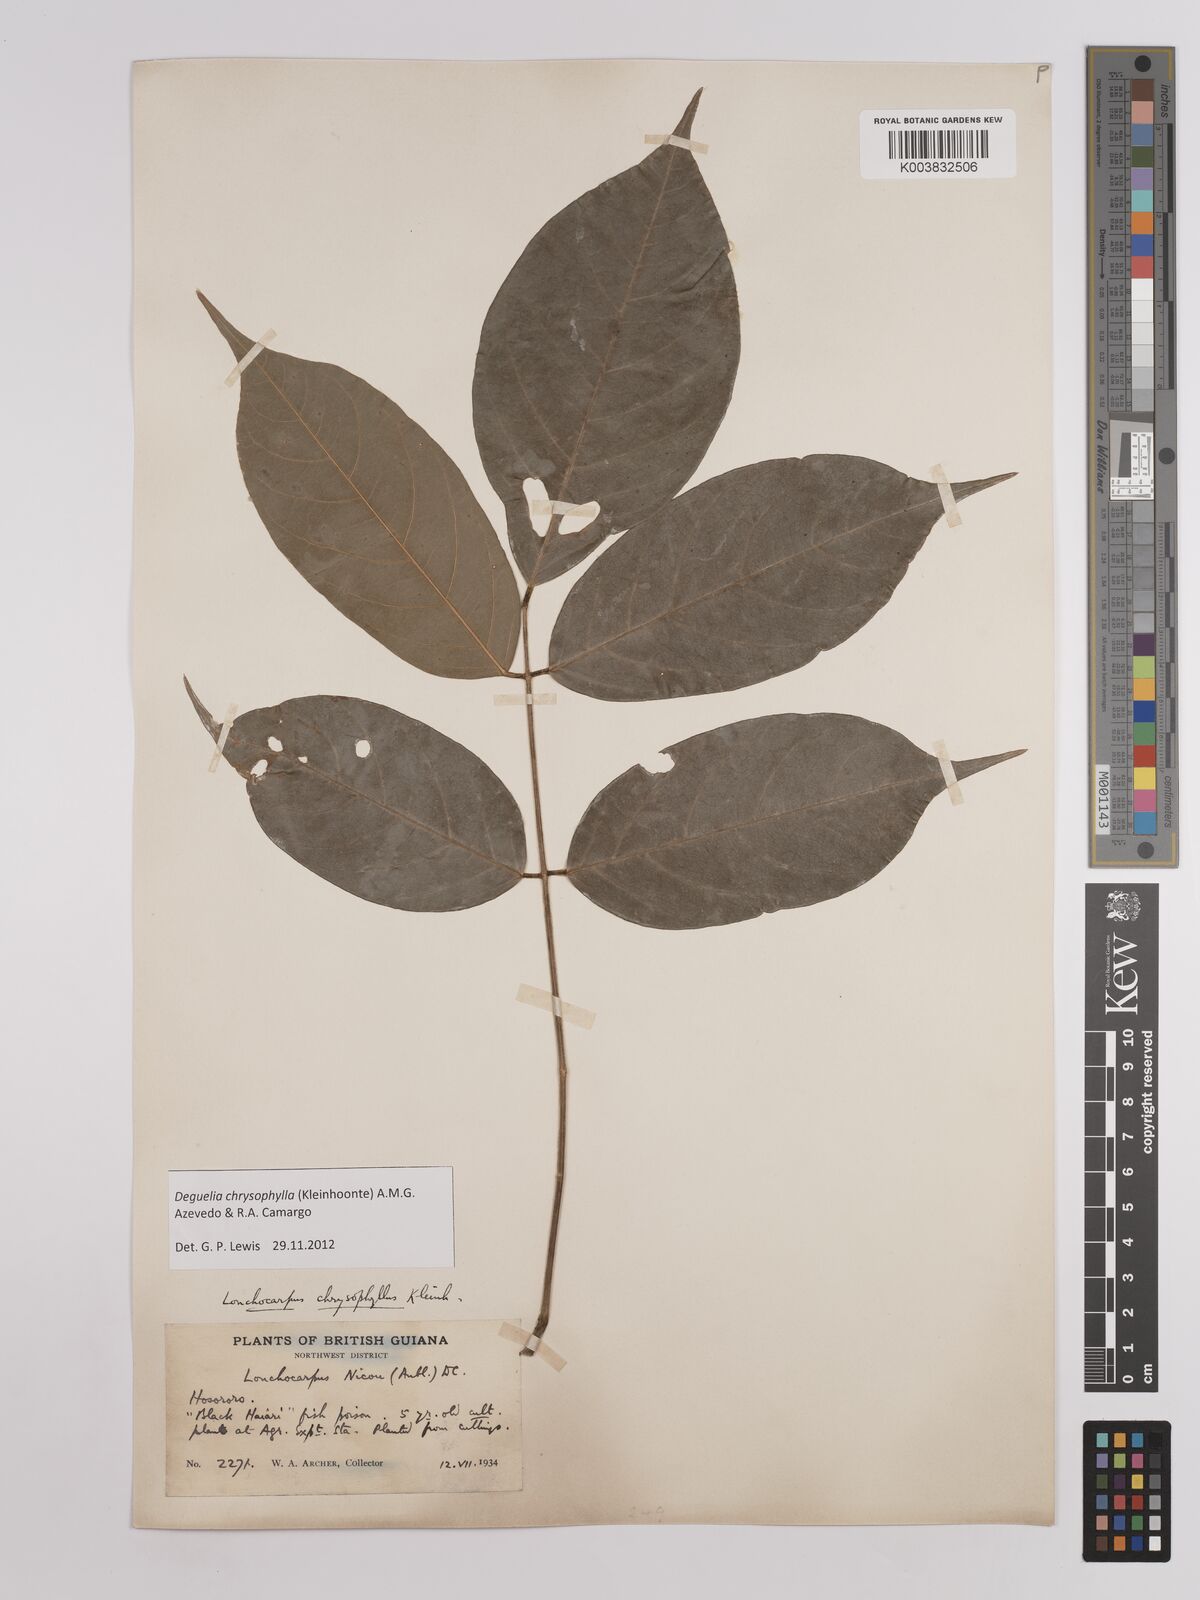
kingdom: Plantae
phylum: Tracheophyta
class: Magnoliopsida
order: Fabales
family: Fabaceae
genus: Deguelia
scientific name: Deguelia chrysophylla
